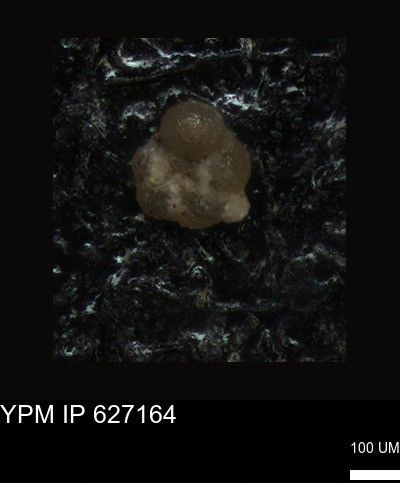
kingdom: Chromista
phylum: Foraminifera
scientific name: Foraminifera
